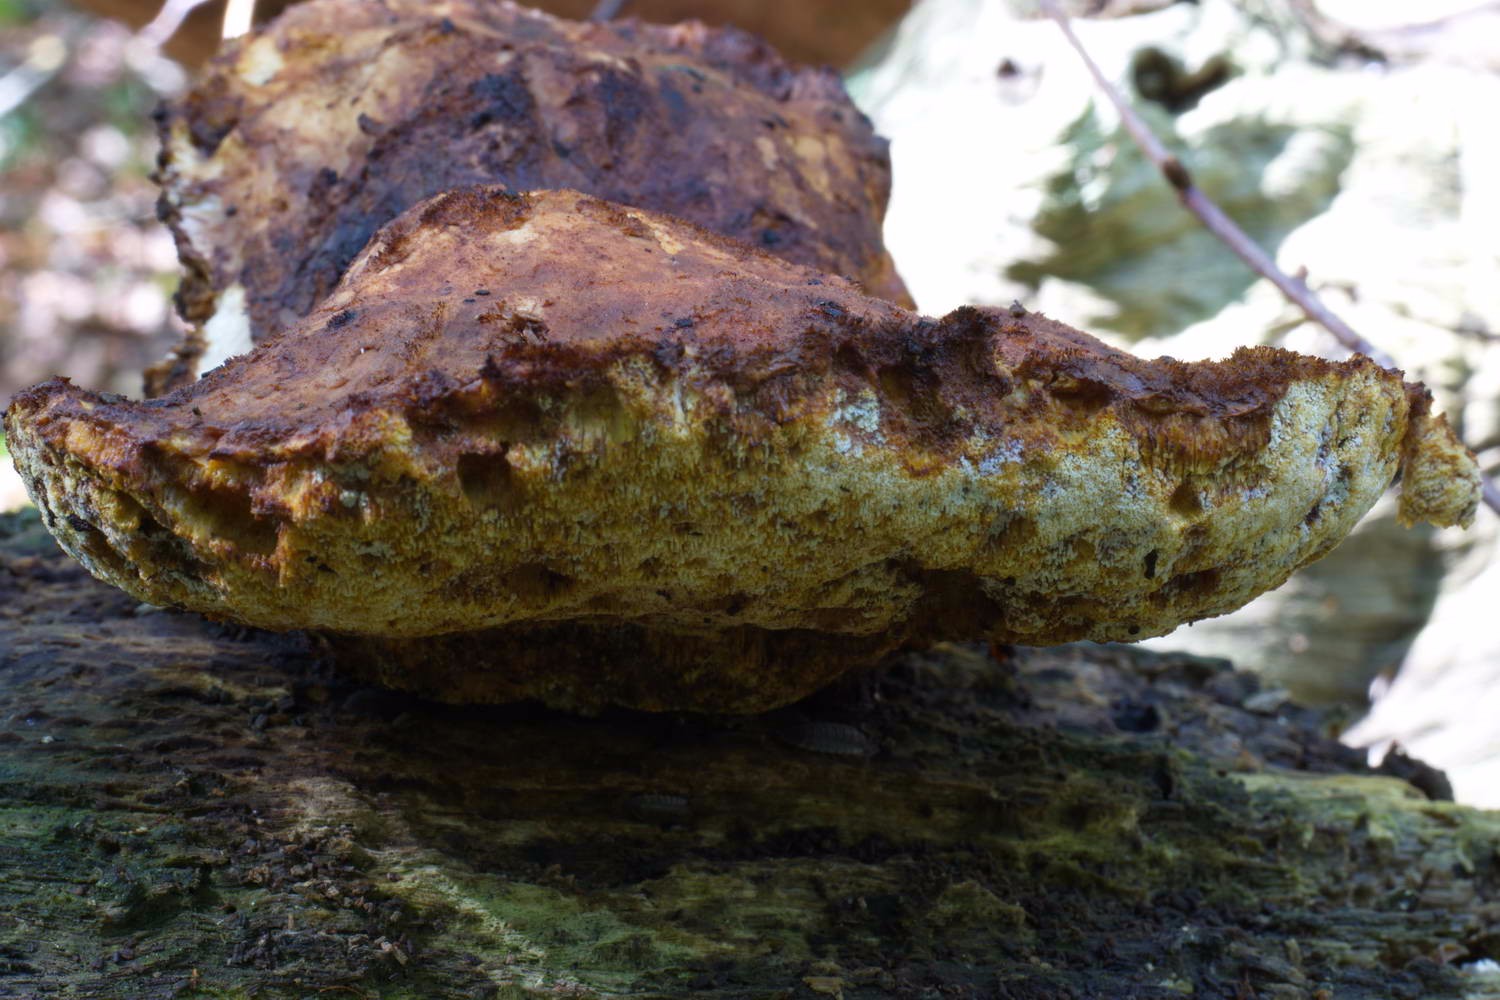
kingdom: Fungi
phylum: Basidiomycota
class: Agaricomycetes
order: Polyporales
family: Fomitopsidaceae
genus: Buglossoporus
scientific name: Buglossoporus quercinus
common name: egetunge
